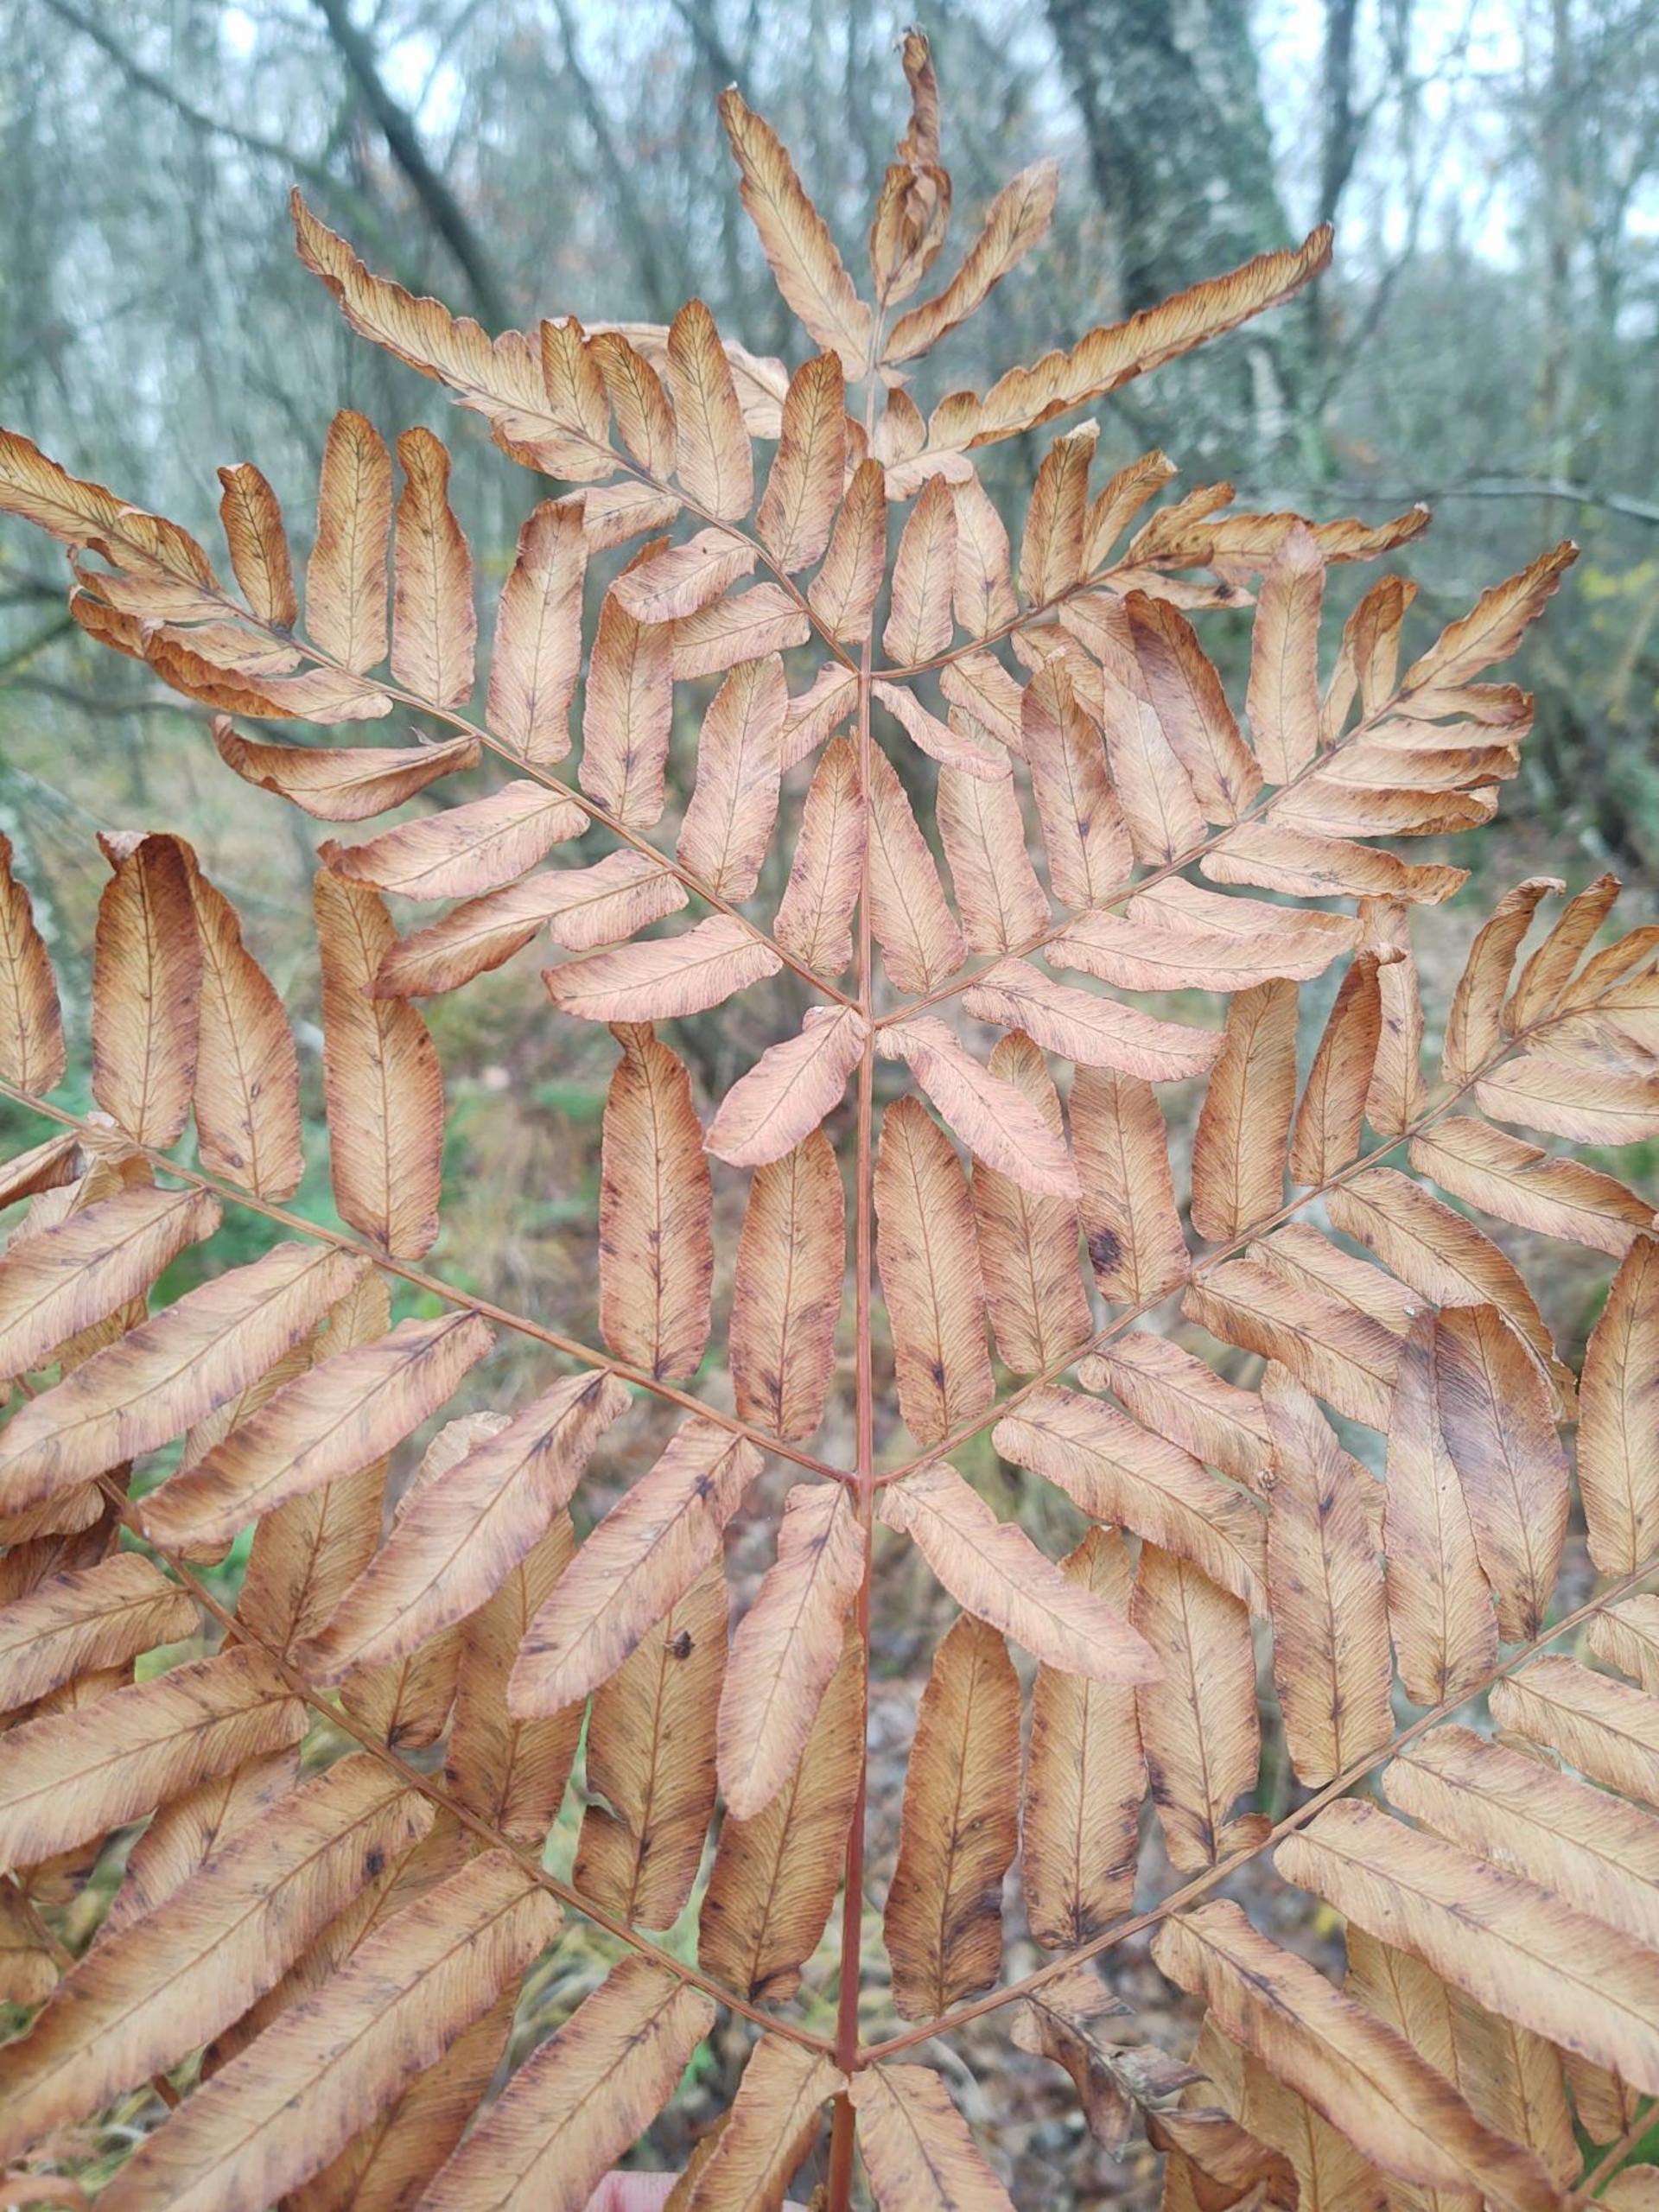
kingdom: Plantae
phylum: Tracheophyta
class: Polypodiopsida
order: Osmundales
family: Osmundaceae
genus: Osmunda
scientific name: Osmunda regalis
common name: Kongebregne
